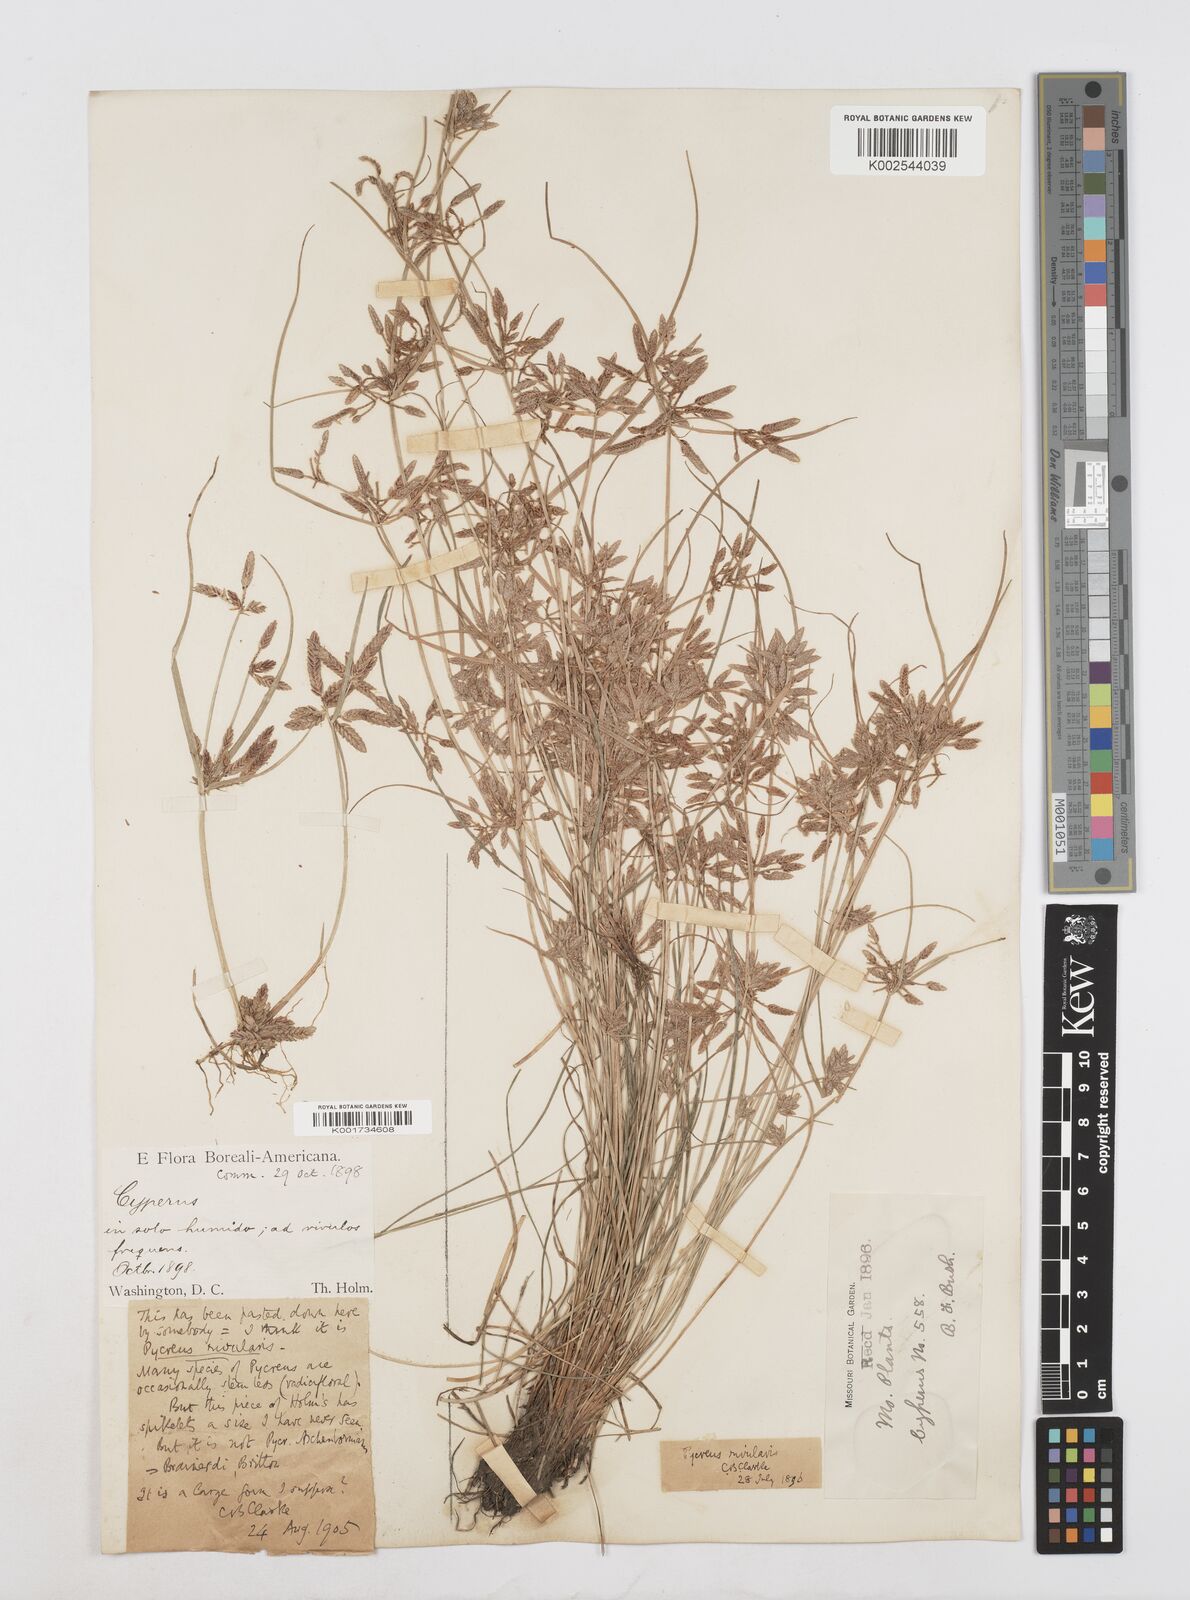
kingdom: Plantae
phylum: Tracheophyta
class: Liliopsida
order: Poales
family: Cyperaceae
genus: Cyperus
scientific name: Cyperus bipartitus
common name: Brook flatsedge
